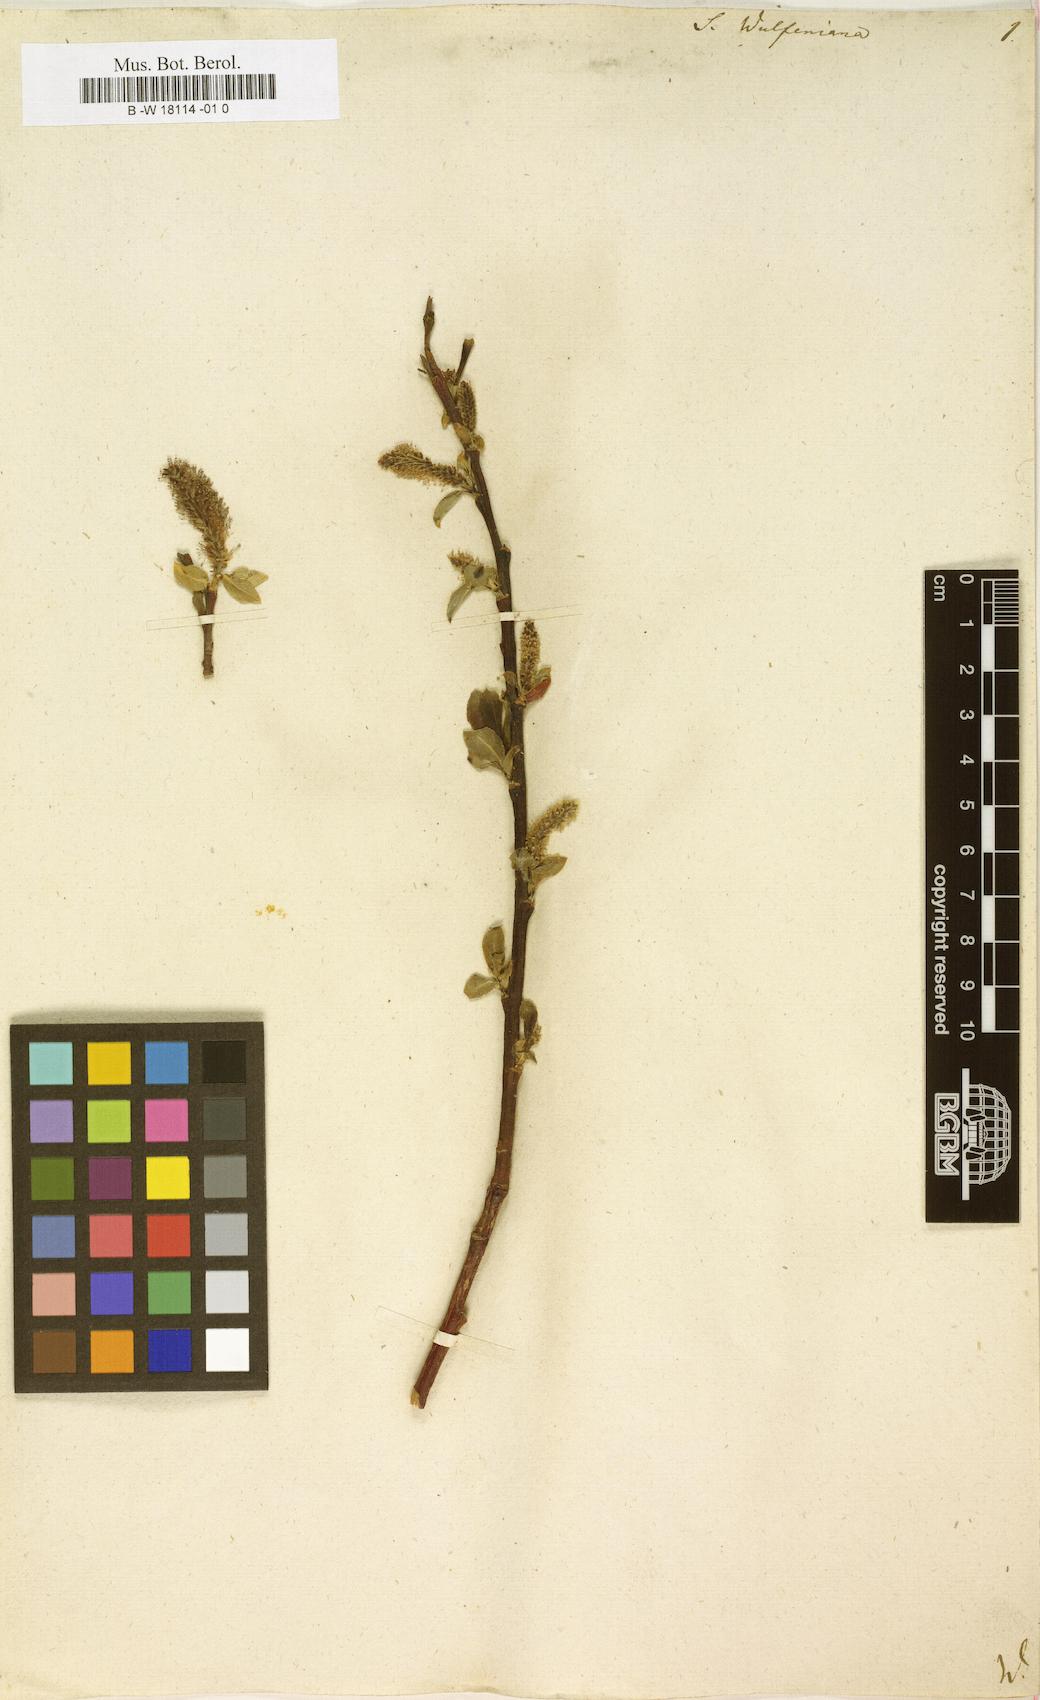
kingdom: Plantae
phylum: Tracheophyta
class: Magnoliopsida
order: Malpighiales
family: Salicaceae
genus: Salix
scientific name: Salix
